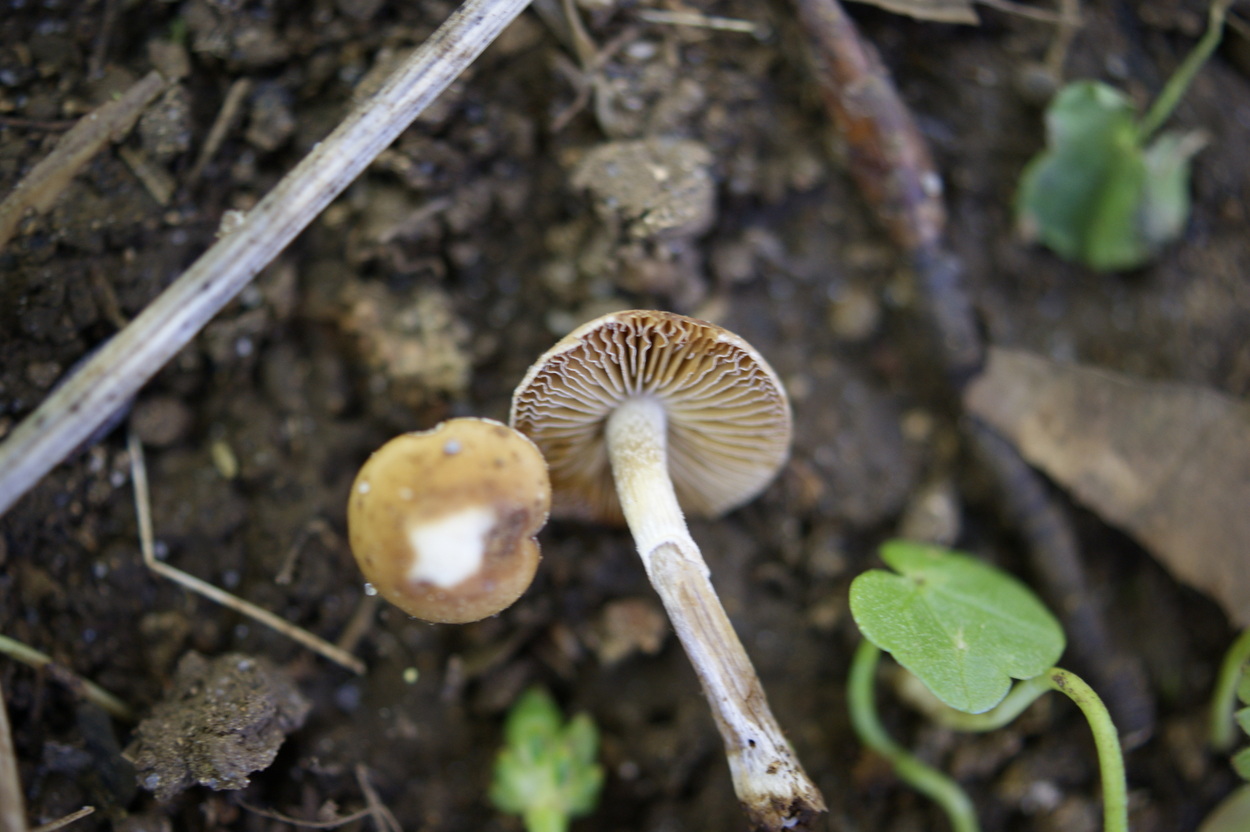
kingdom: Fungi
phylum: Basidiomycota
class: Agaricomycetes
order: Agaricales
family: Bolbitiaceae
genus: Conocybe
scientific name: Conocybe aporos
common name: tidlig dansehat
